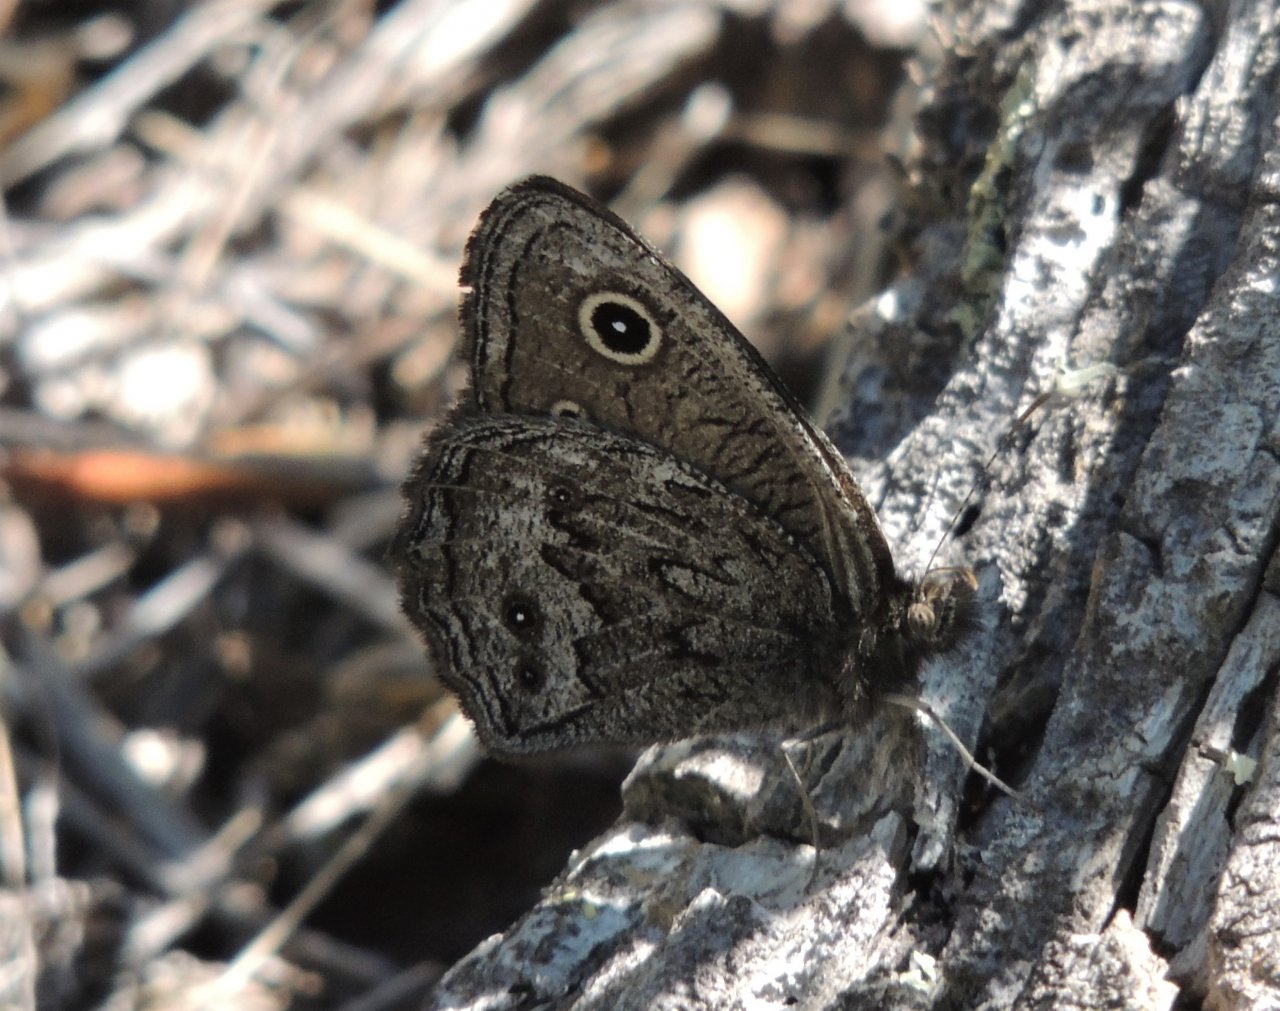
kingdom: Animalia
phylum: Arthropoda
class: Insecta
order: Lepidoptera
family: Nymphalidae
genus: Cercyonis
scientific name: Cercyonis oetus
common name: Small Wood-Nymph
